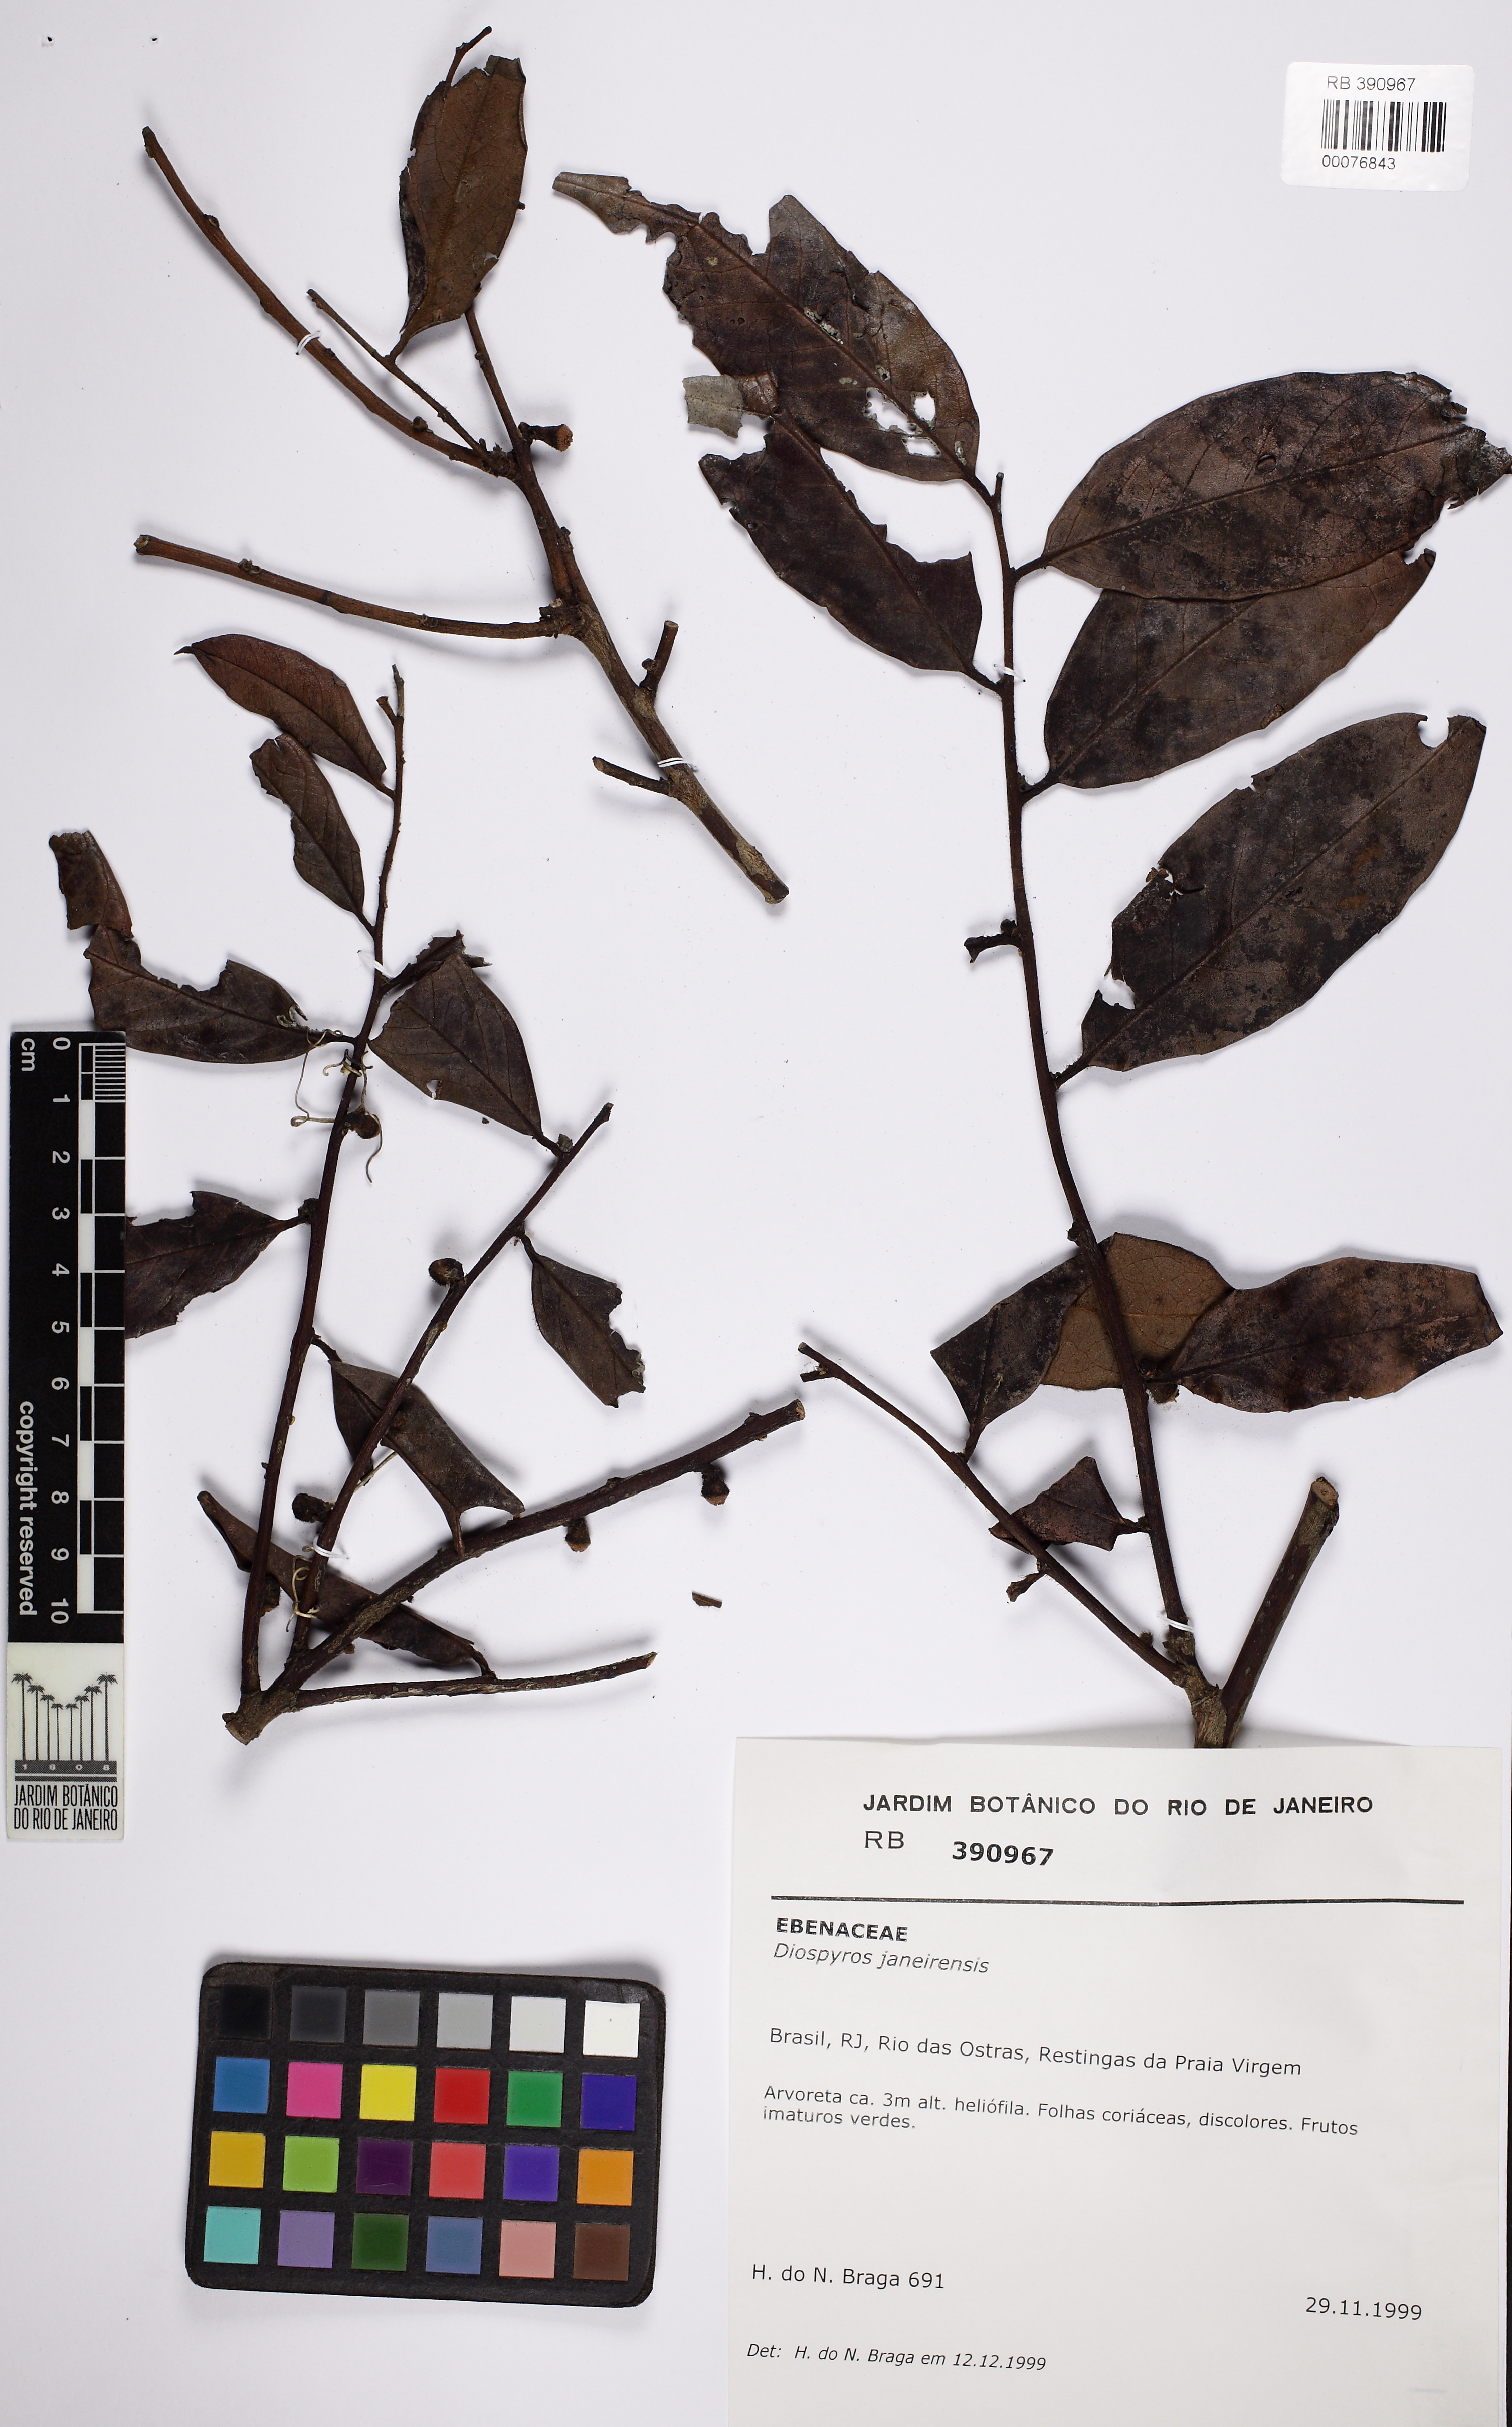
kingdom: Plantae
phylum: Tracheophyta
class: Magnoliopsida
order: Ericales
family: Ebenaceae
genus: Diospyros
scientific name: Diospyros apeibacarpos
